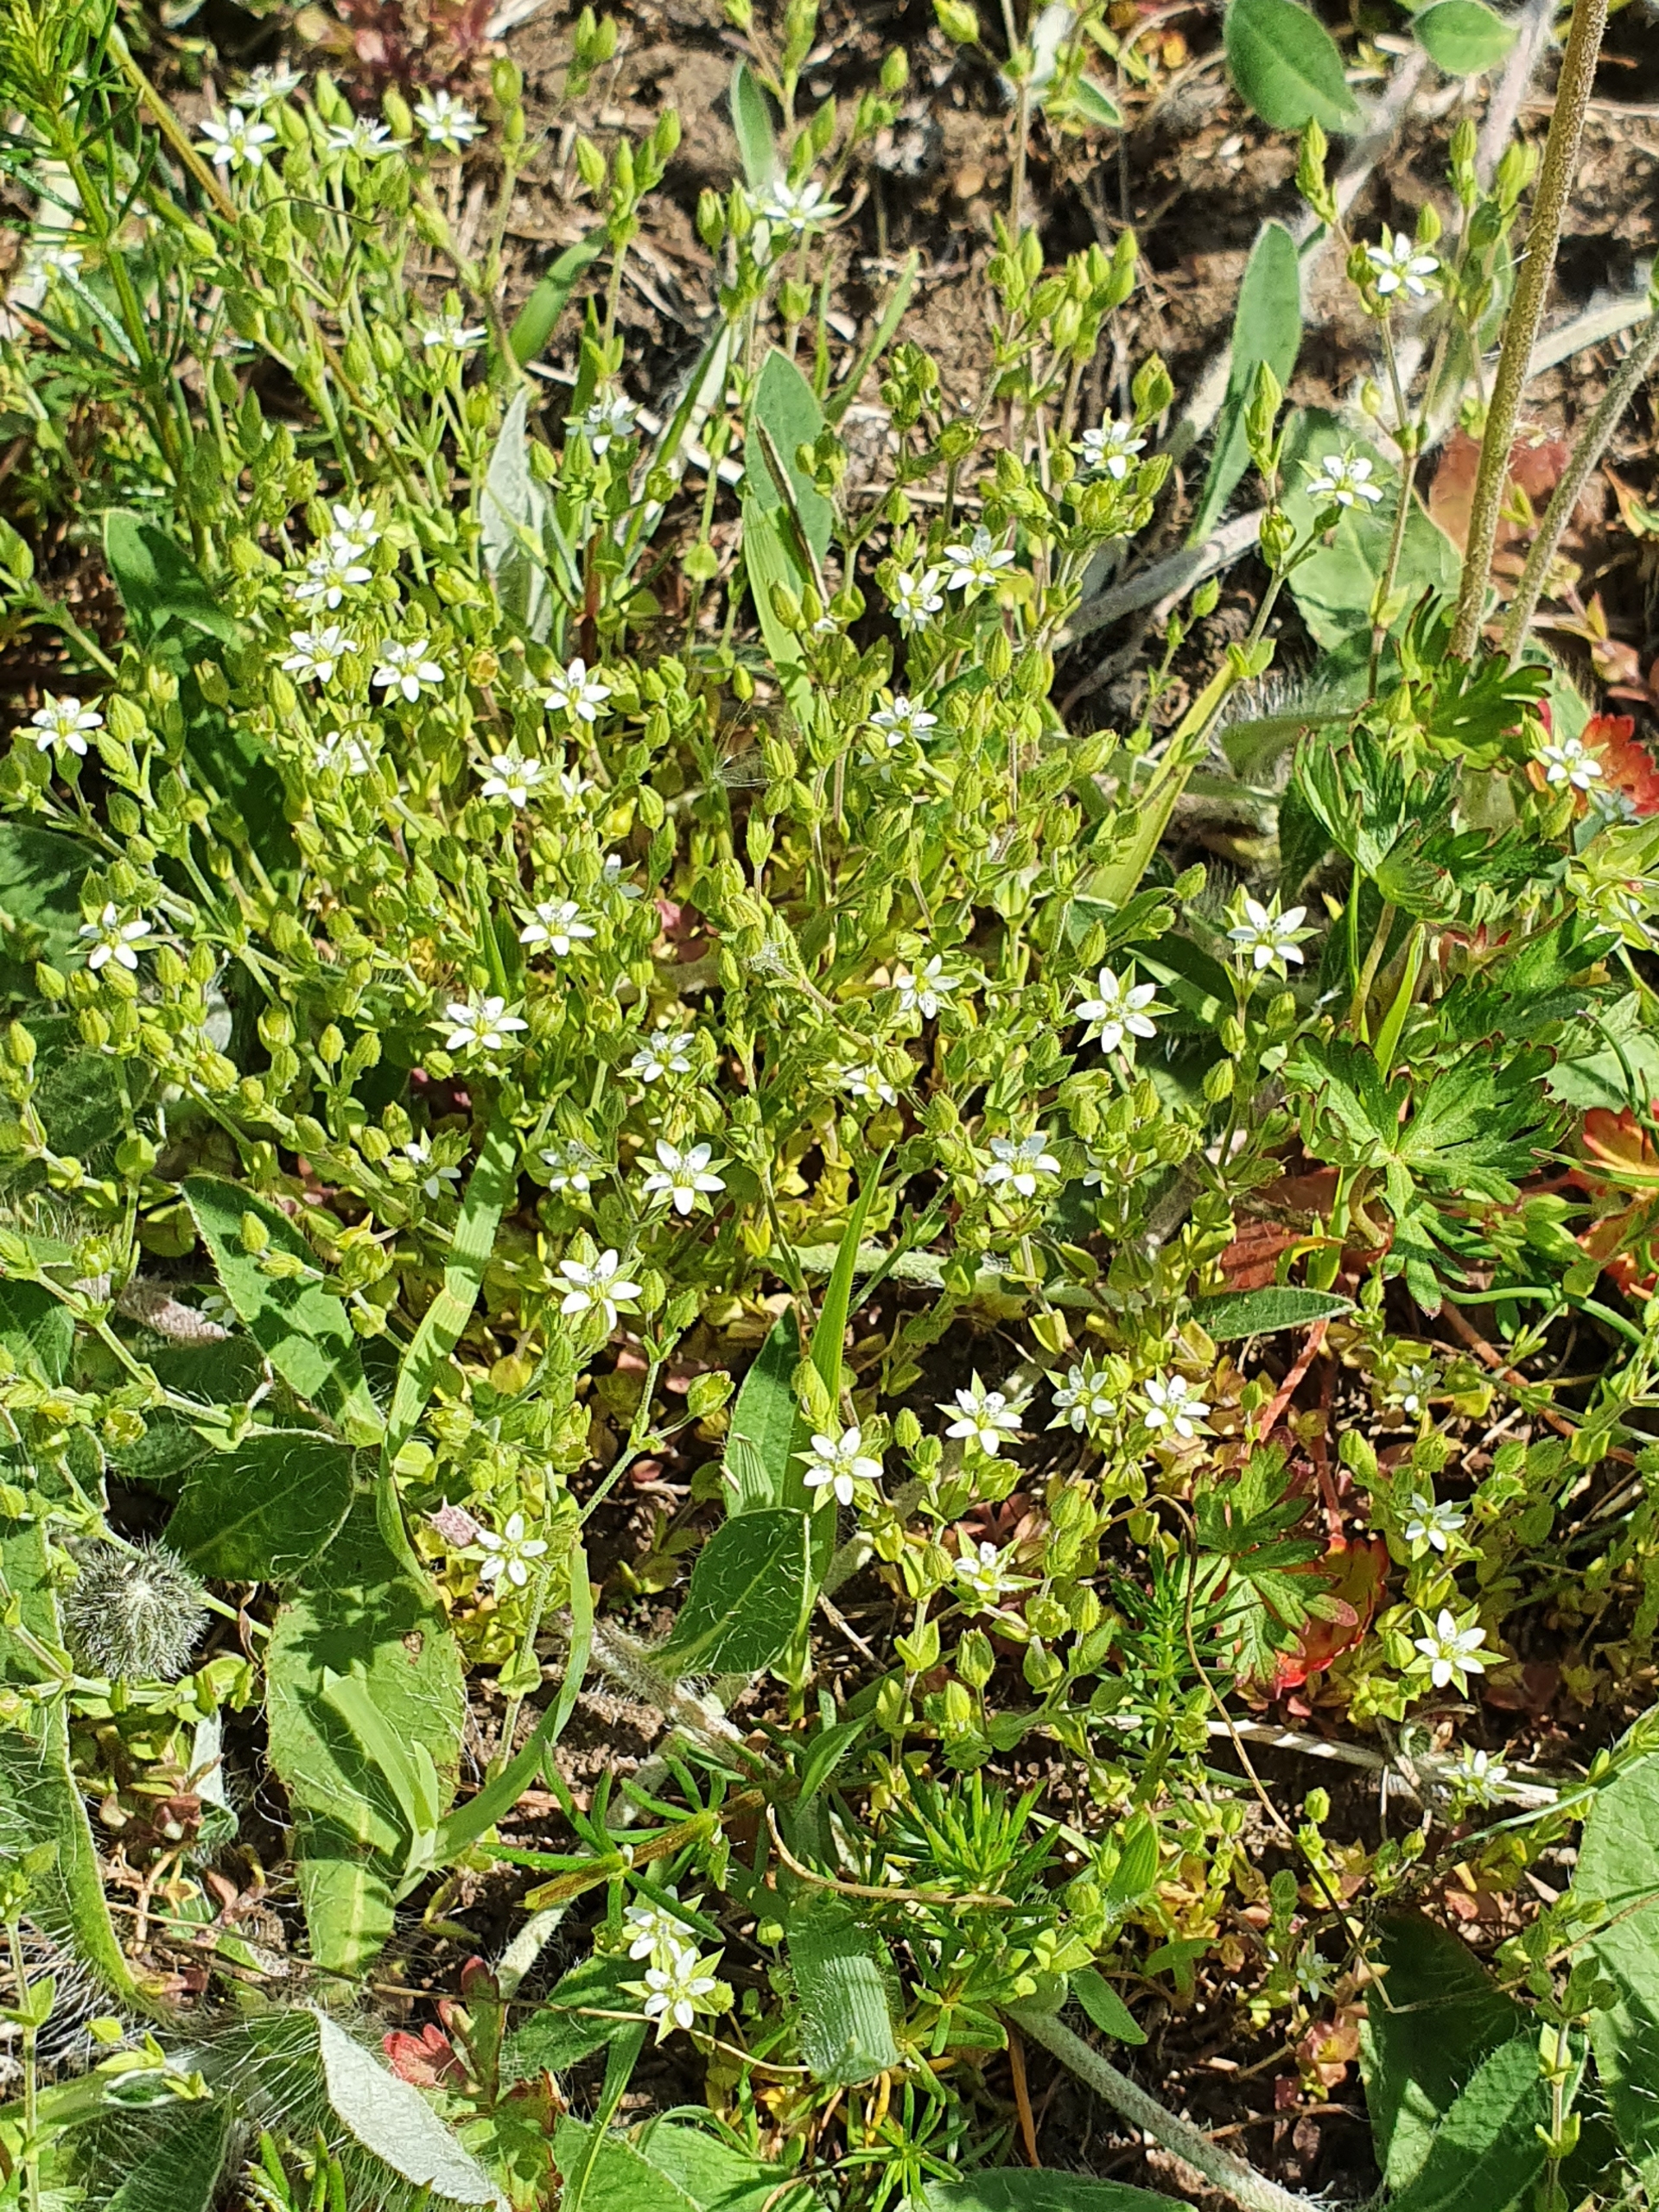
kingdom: Plantae
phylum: Tracheophyta
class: Magnoliopsida
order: Caryophyllales
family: Caryophyllaceae
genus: Arenaria
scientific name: Arenaria serpyllifolia
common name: Almindelig markarve
